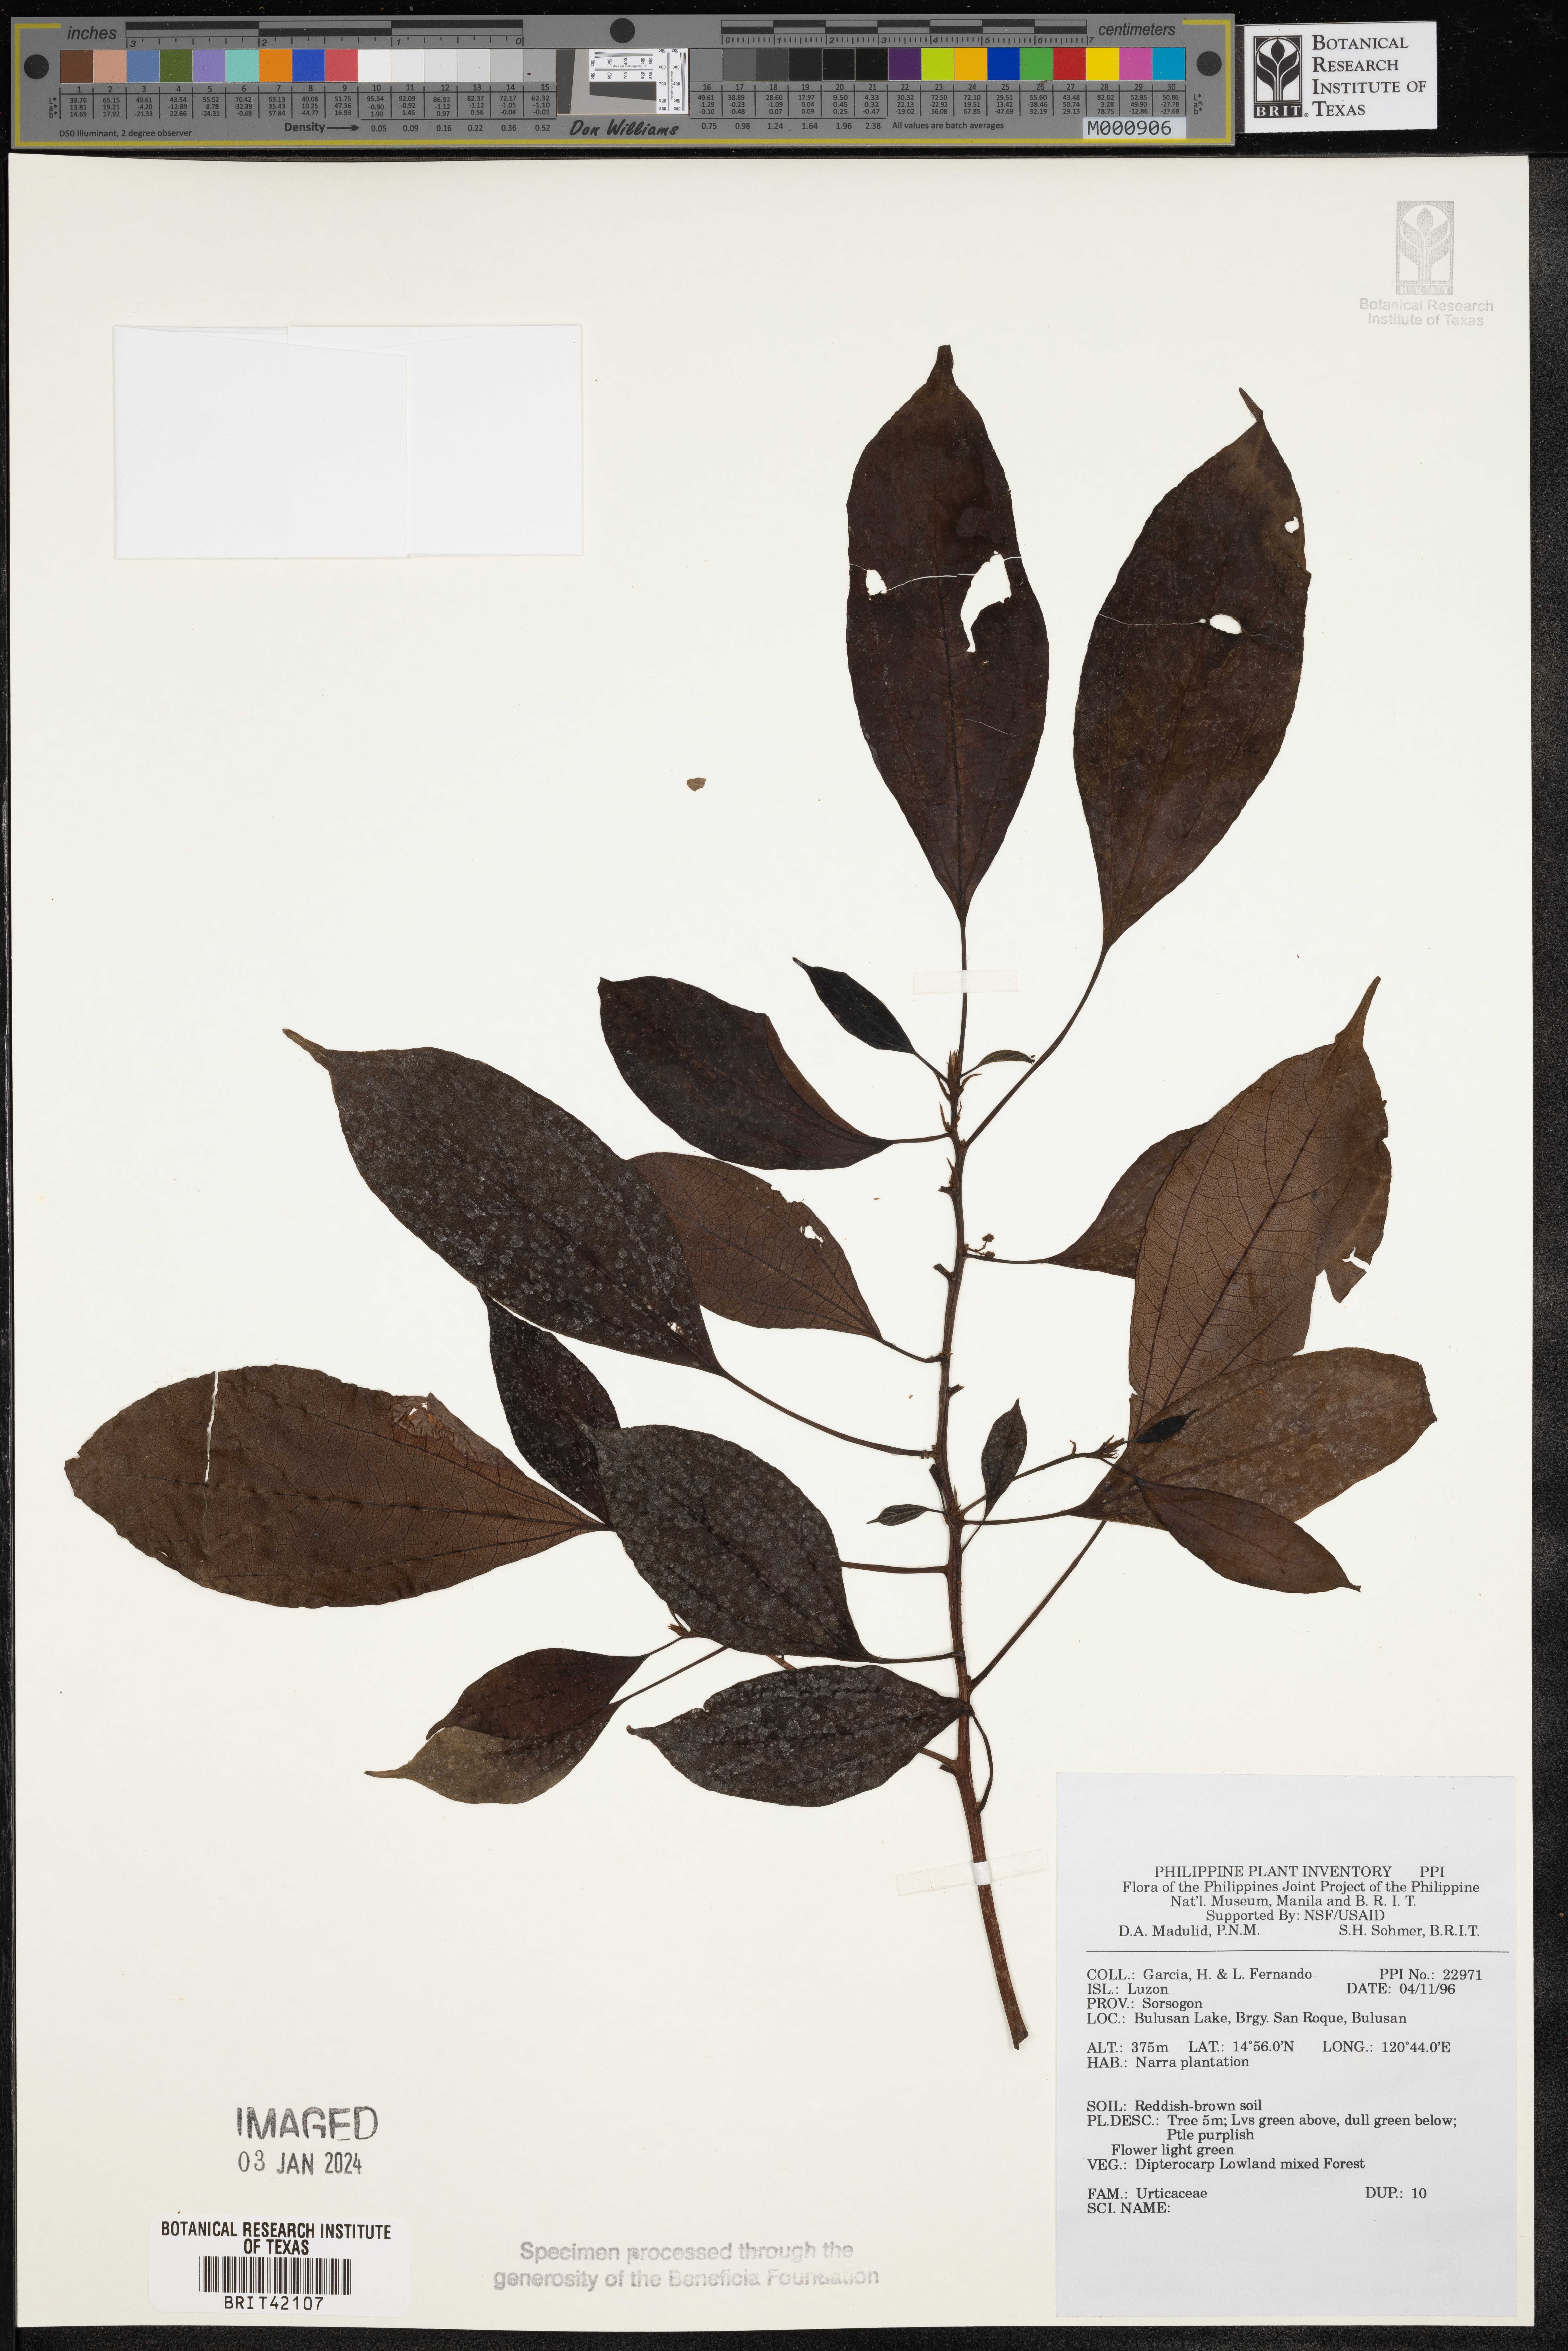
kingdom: Plantae
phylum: Tracheophyta
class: Magnoliopsida
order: Rosales
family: Urticaceae
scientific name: Urticaceae
